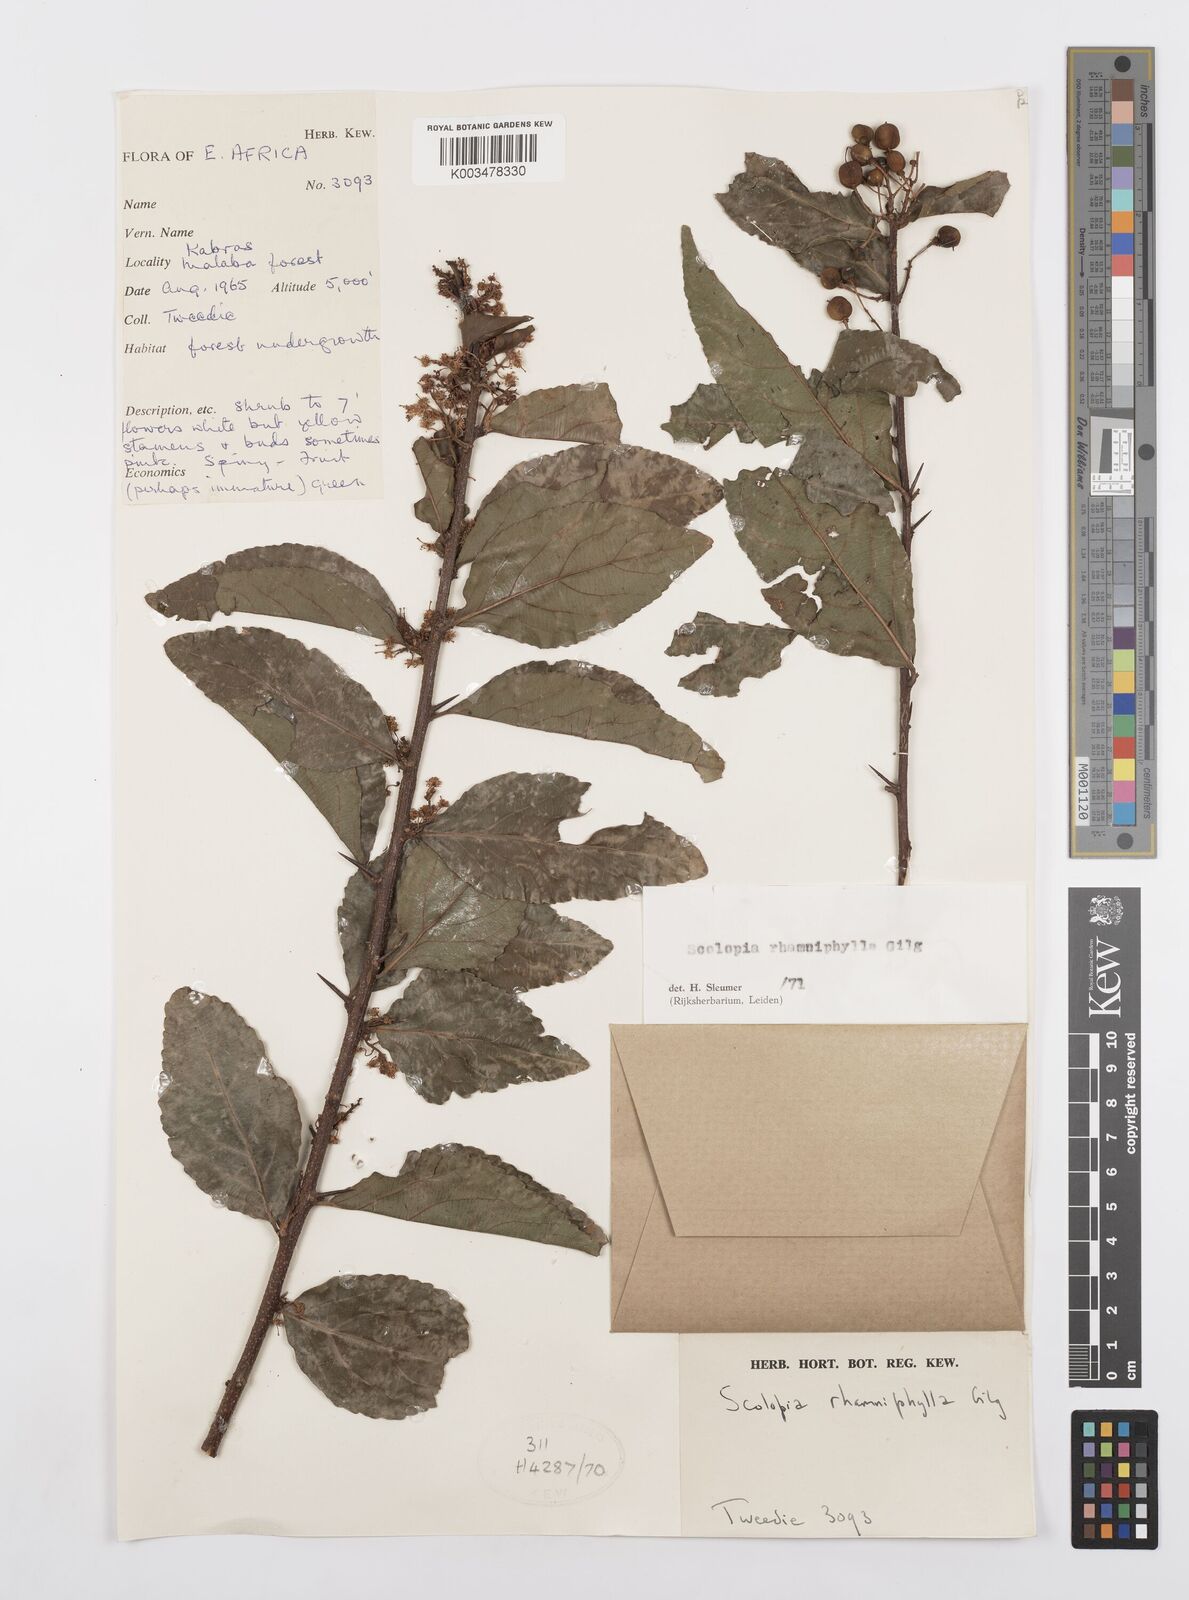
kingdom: Plantae
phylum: Tracheophyta
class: Magnoliopsida
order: Malpighiales
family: Salicaceae
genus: Scolopia
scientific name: Scolopia rhamniphylla
